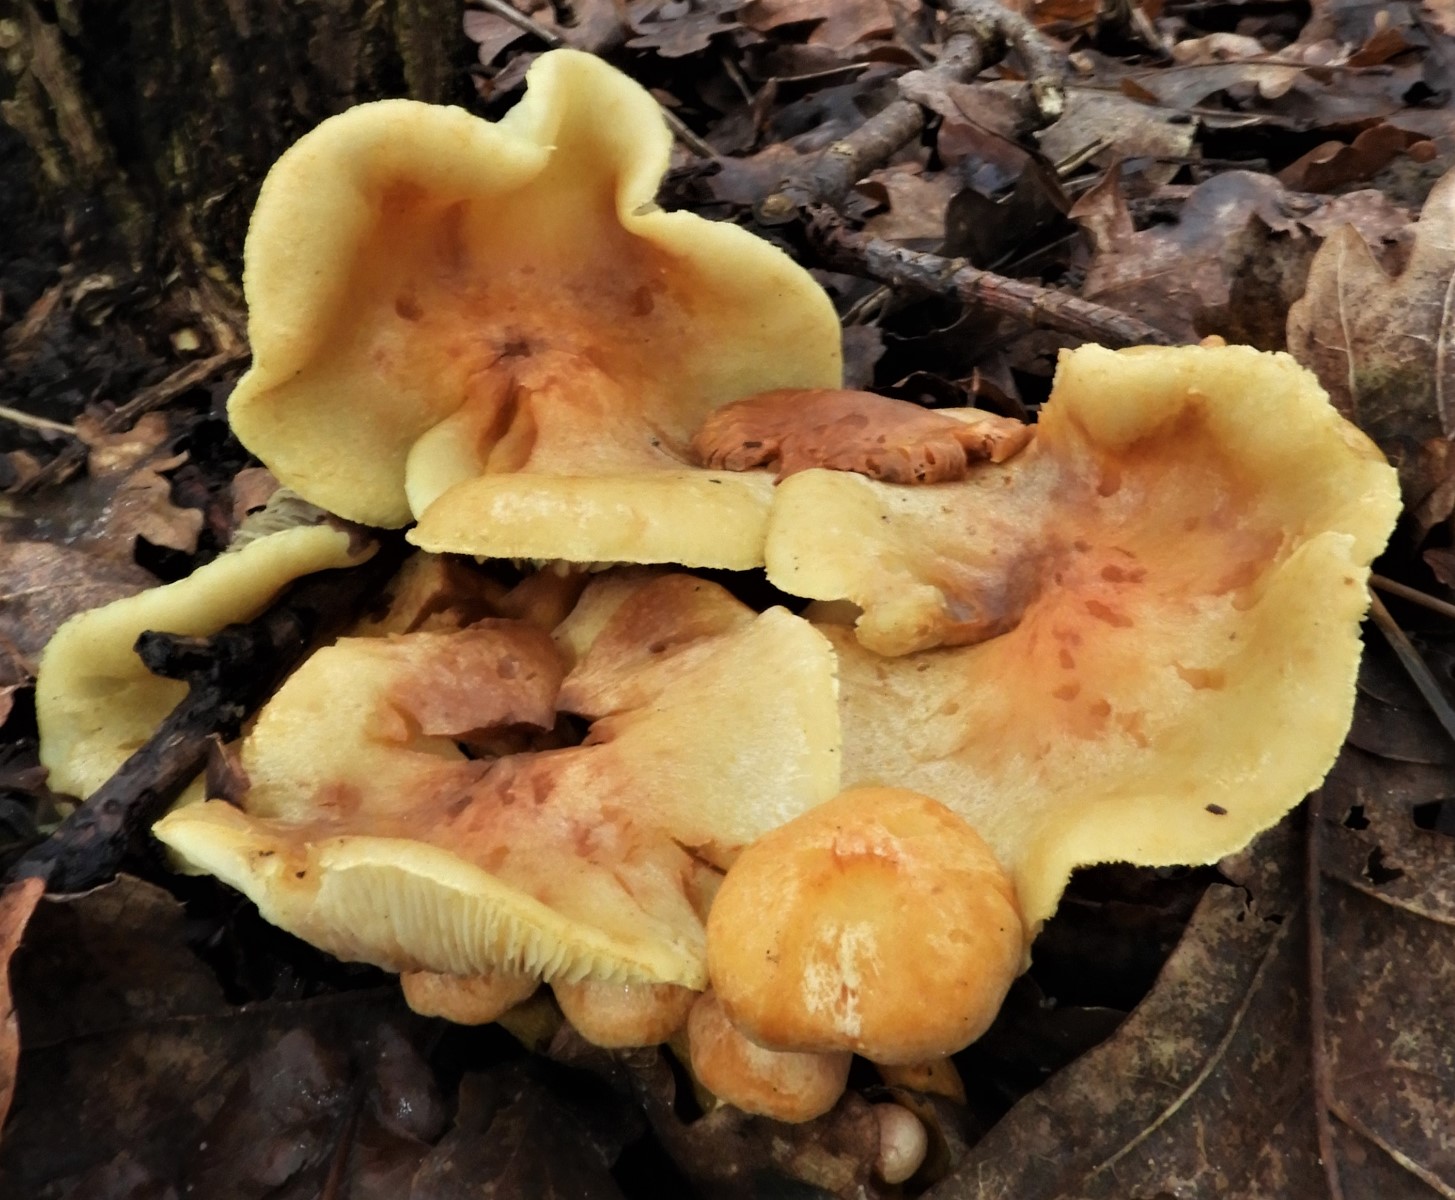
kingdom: Fungi
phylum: Basidiomycota
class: Agaricomycetes
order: Agaricales
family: Strophariaceae
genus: Hypholoma
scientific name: Hypholoma fasciculare
